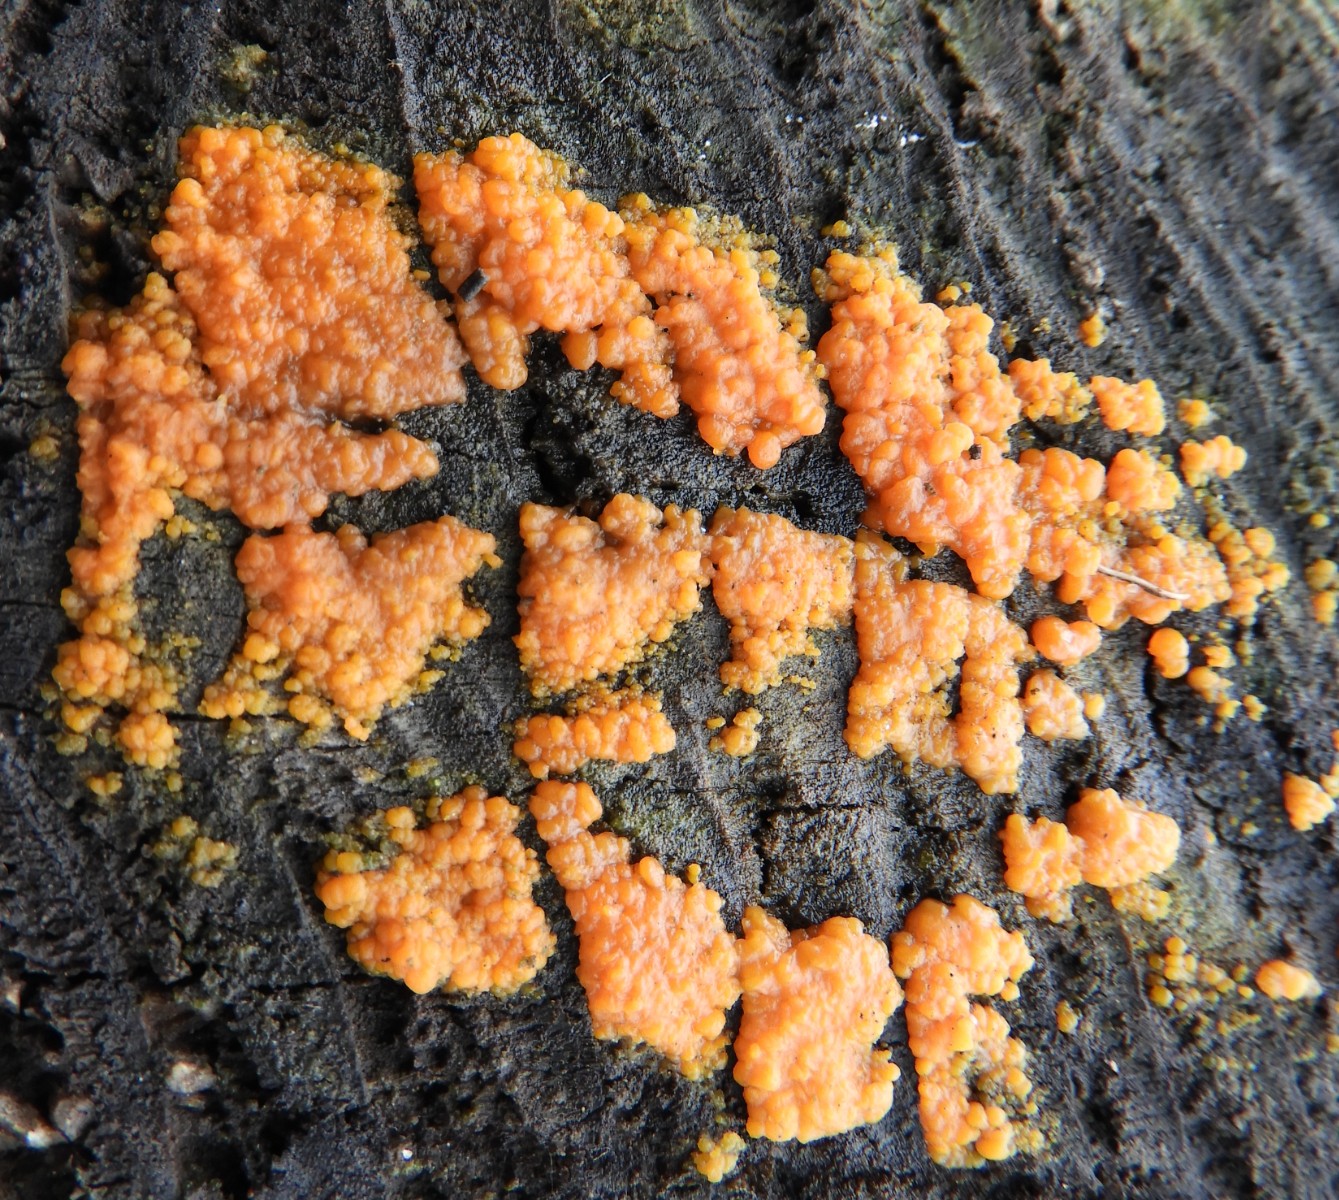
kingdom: Fungi
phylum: Basidiomycota
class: Dacrymycetes
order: Dacrymycetales
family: Dacrymycetaceae
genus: Dacrymyces
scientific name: Dacrymyces stillatus
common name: almindelig tåresvamp
